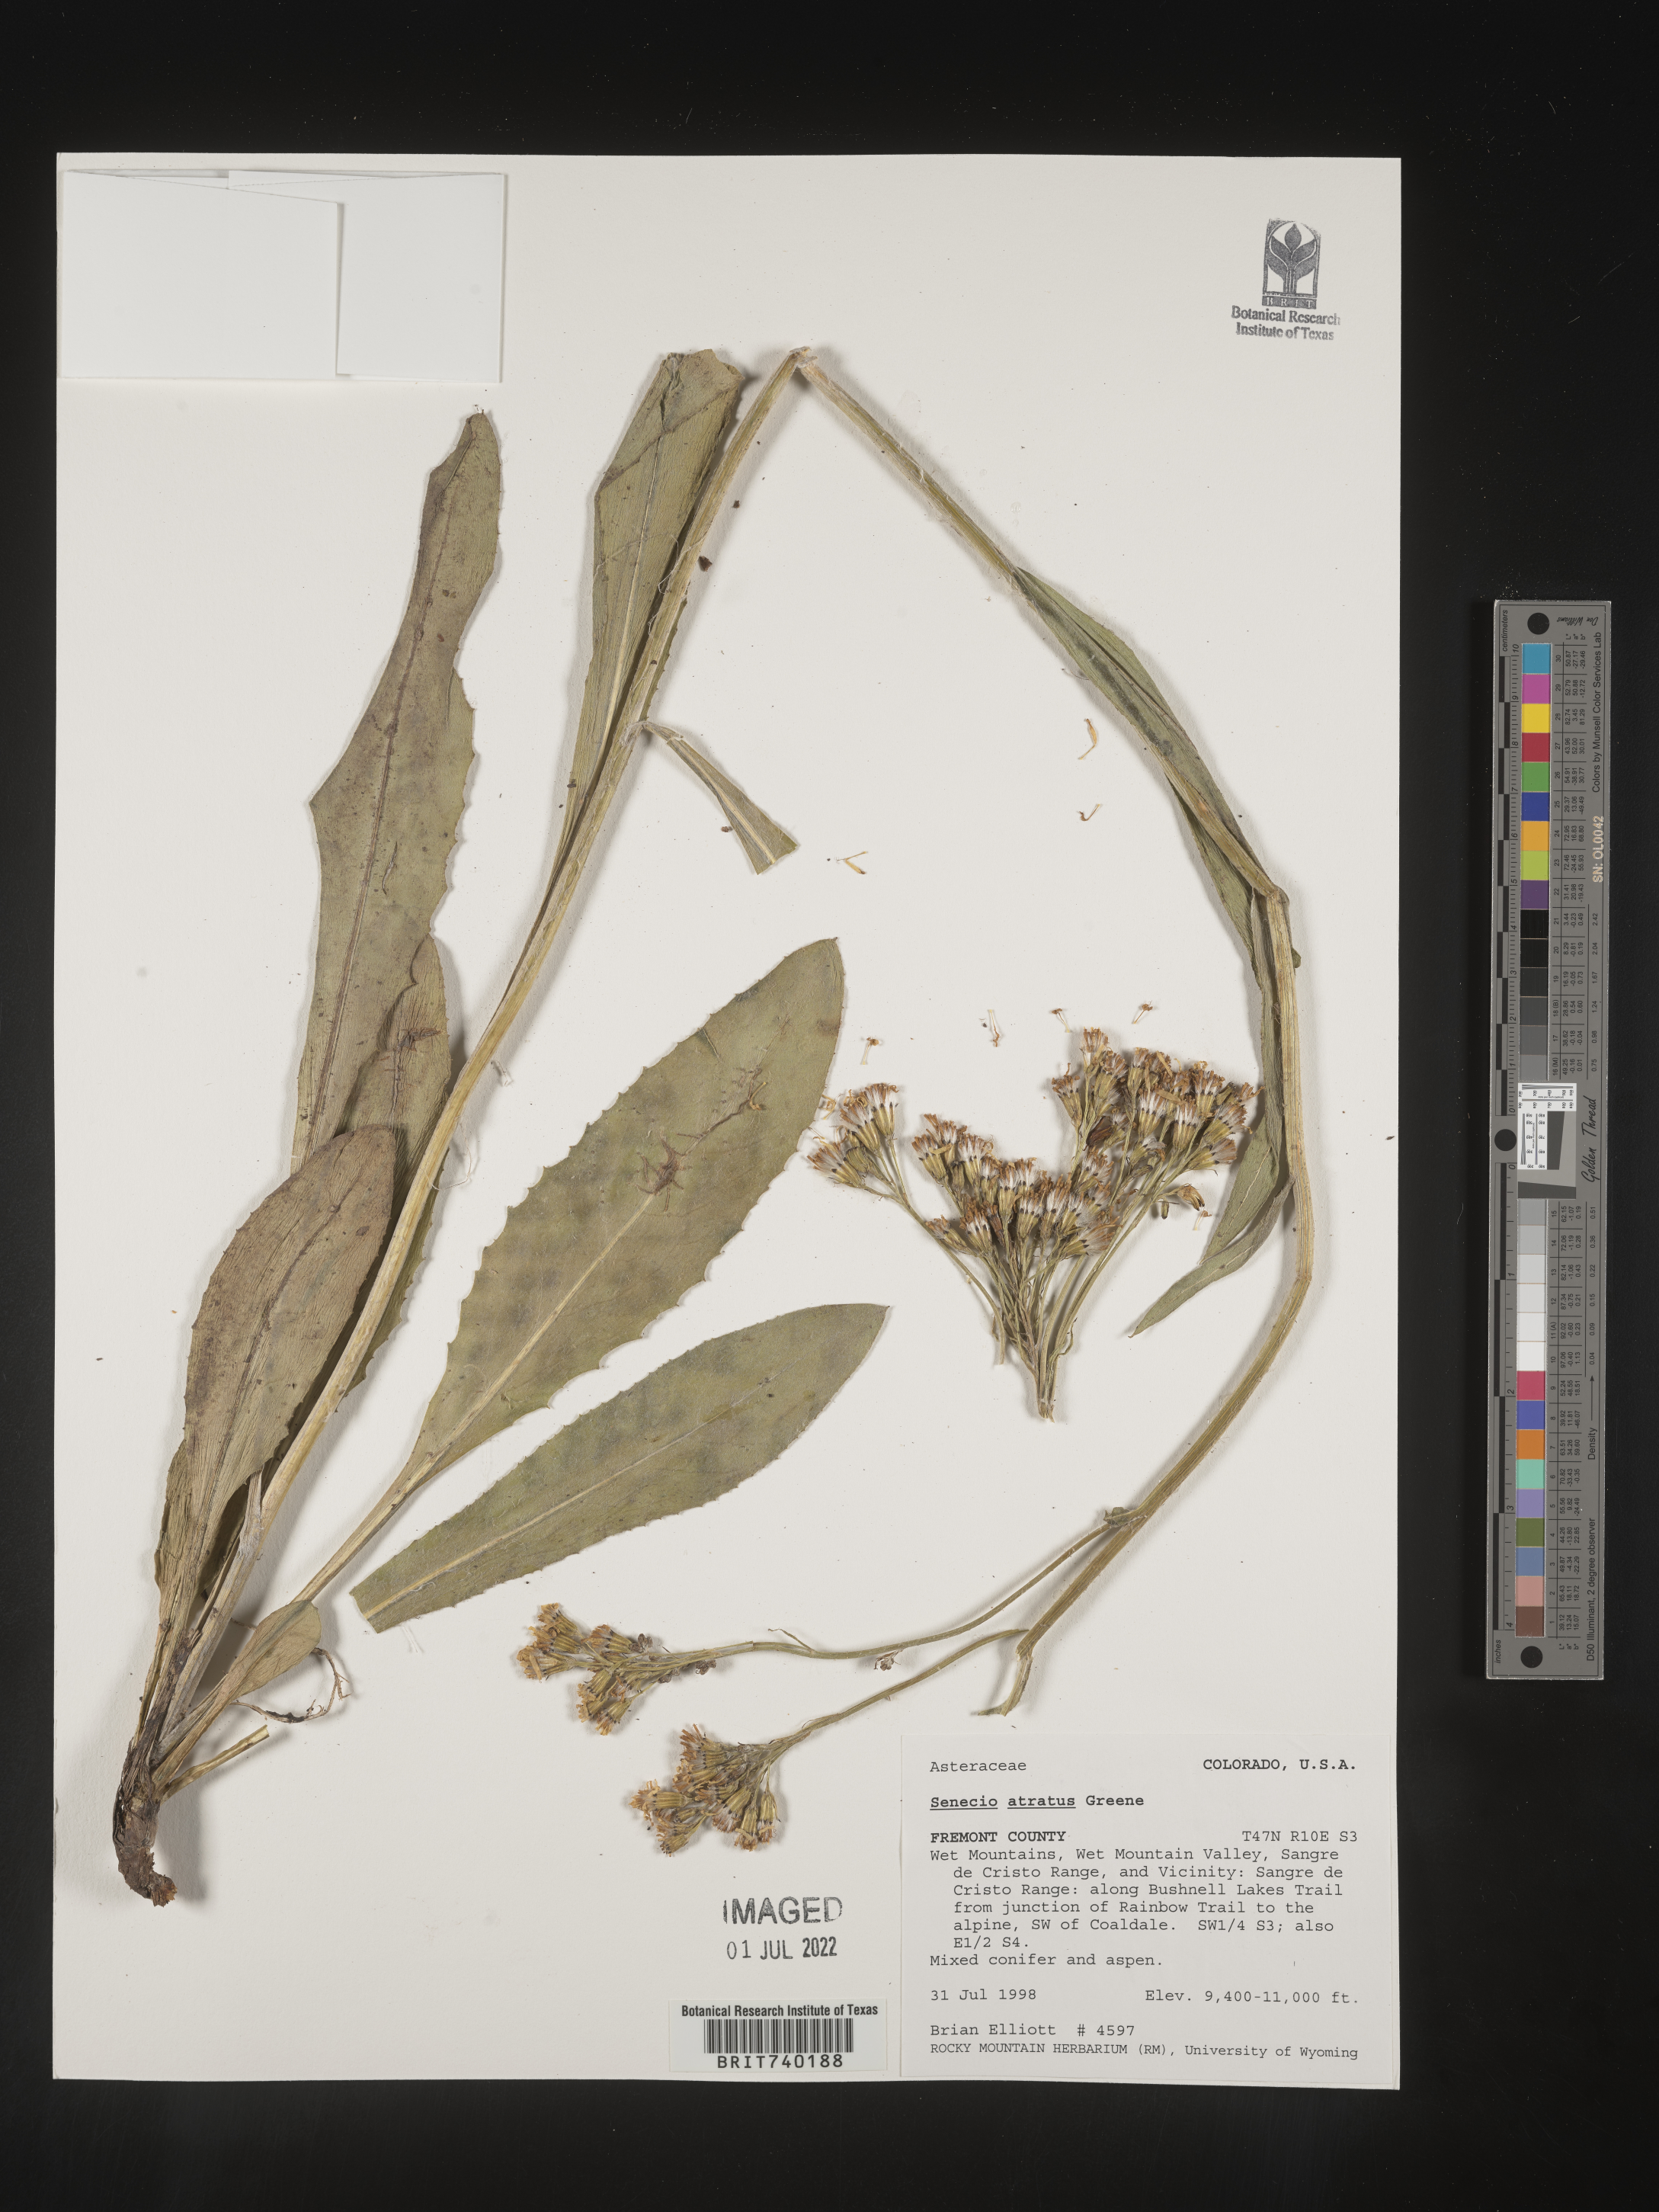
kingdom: Plantae
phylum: Tracheophyta
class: Magnoliopsida
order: Asterales
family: Asteraceae
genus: Senecio
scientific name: Senecio atratus
